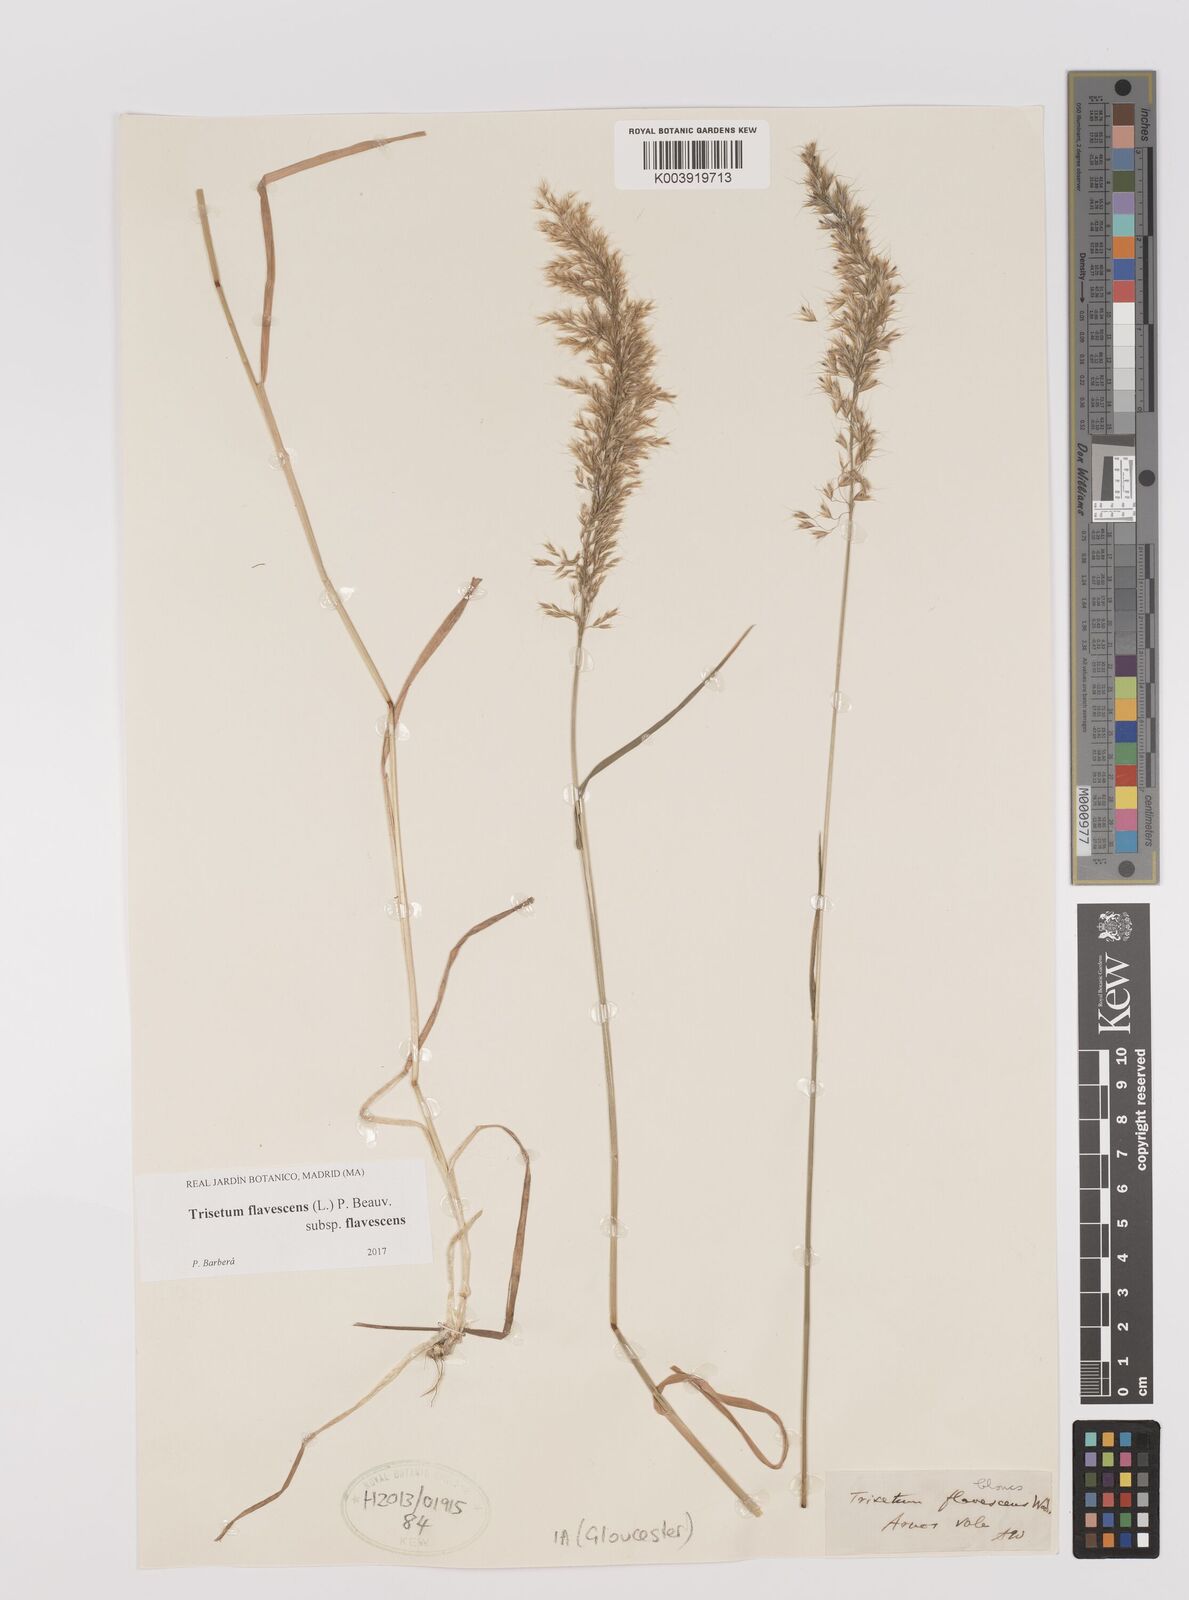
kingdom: Plantae
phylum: Tracheophyta
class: Liliopsida
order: Poales
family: Poaceae
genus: Trisetum
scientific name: Trisetum flavescens
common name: Yellow oat-grass
